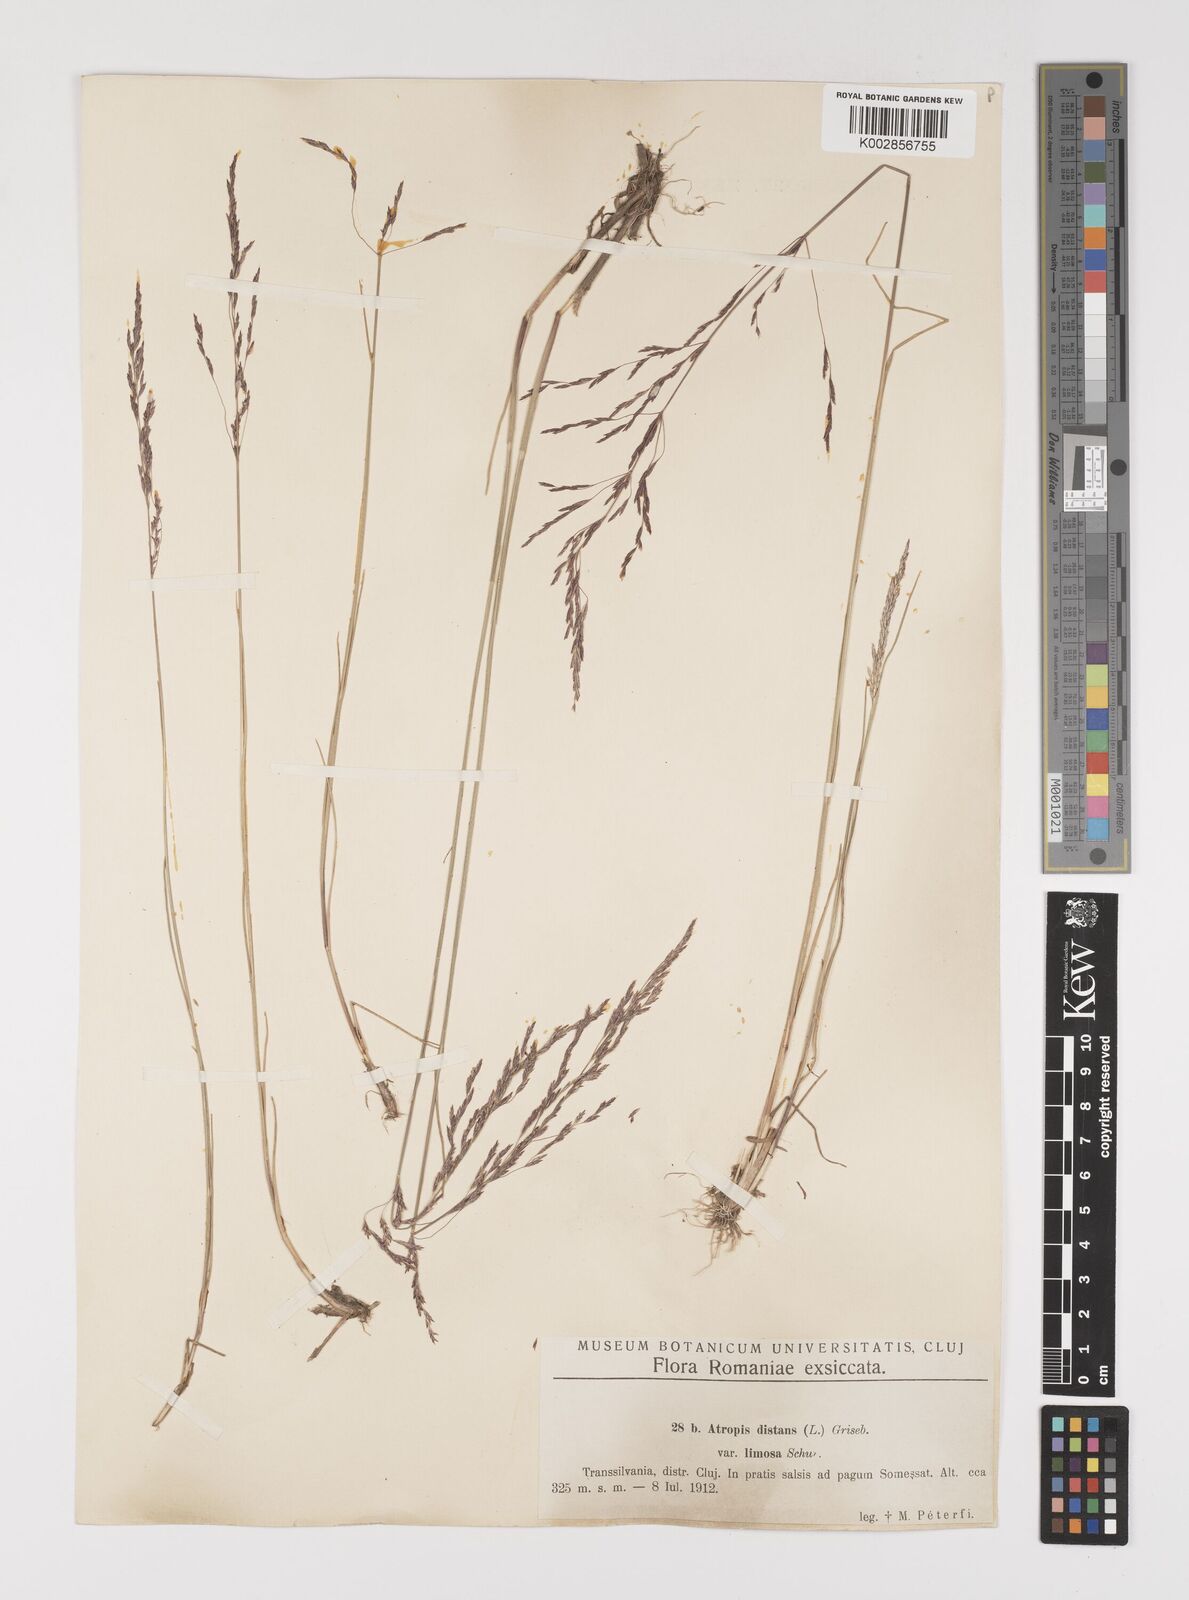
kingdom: Plantae
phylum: Tracheophyta
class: Liliopsida
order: Poales
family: Poaceae
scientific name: Poaceae
